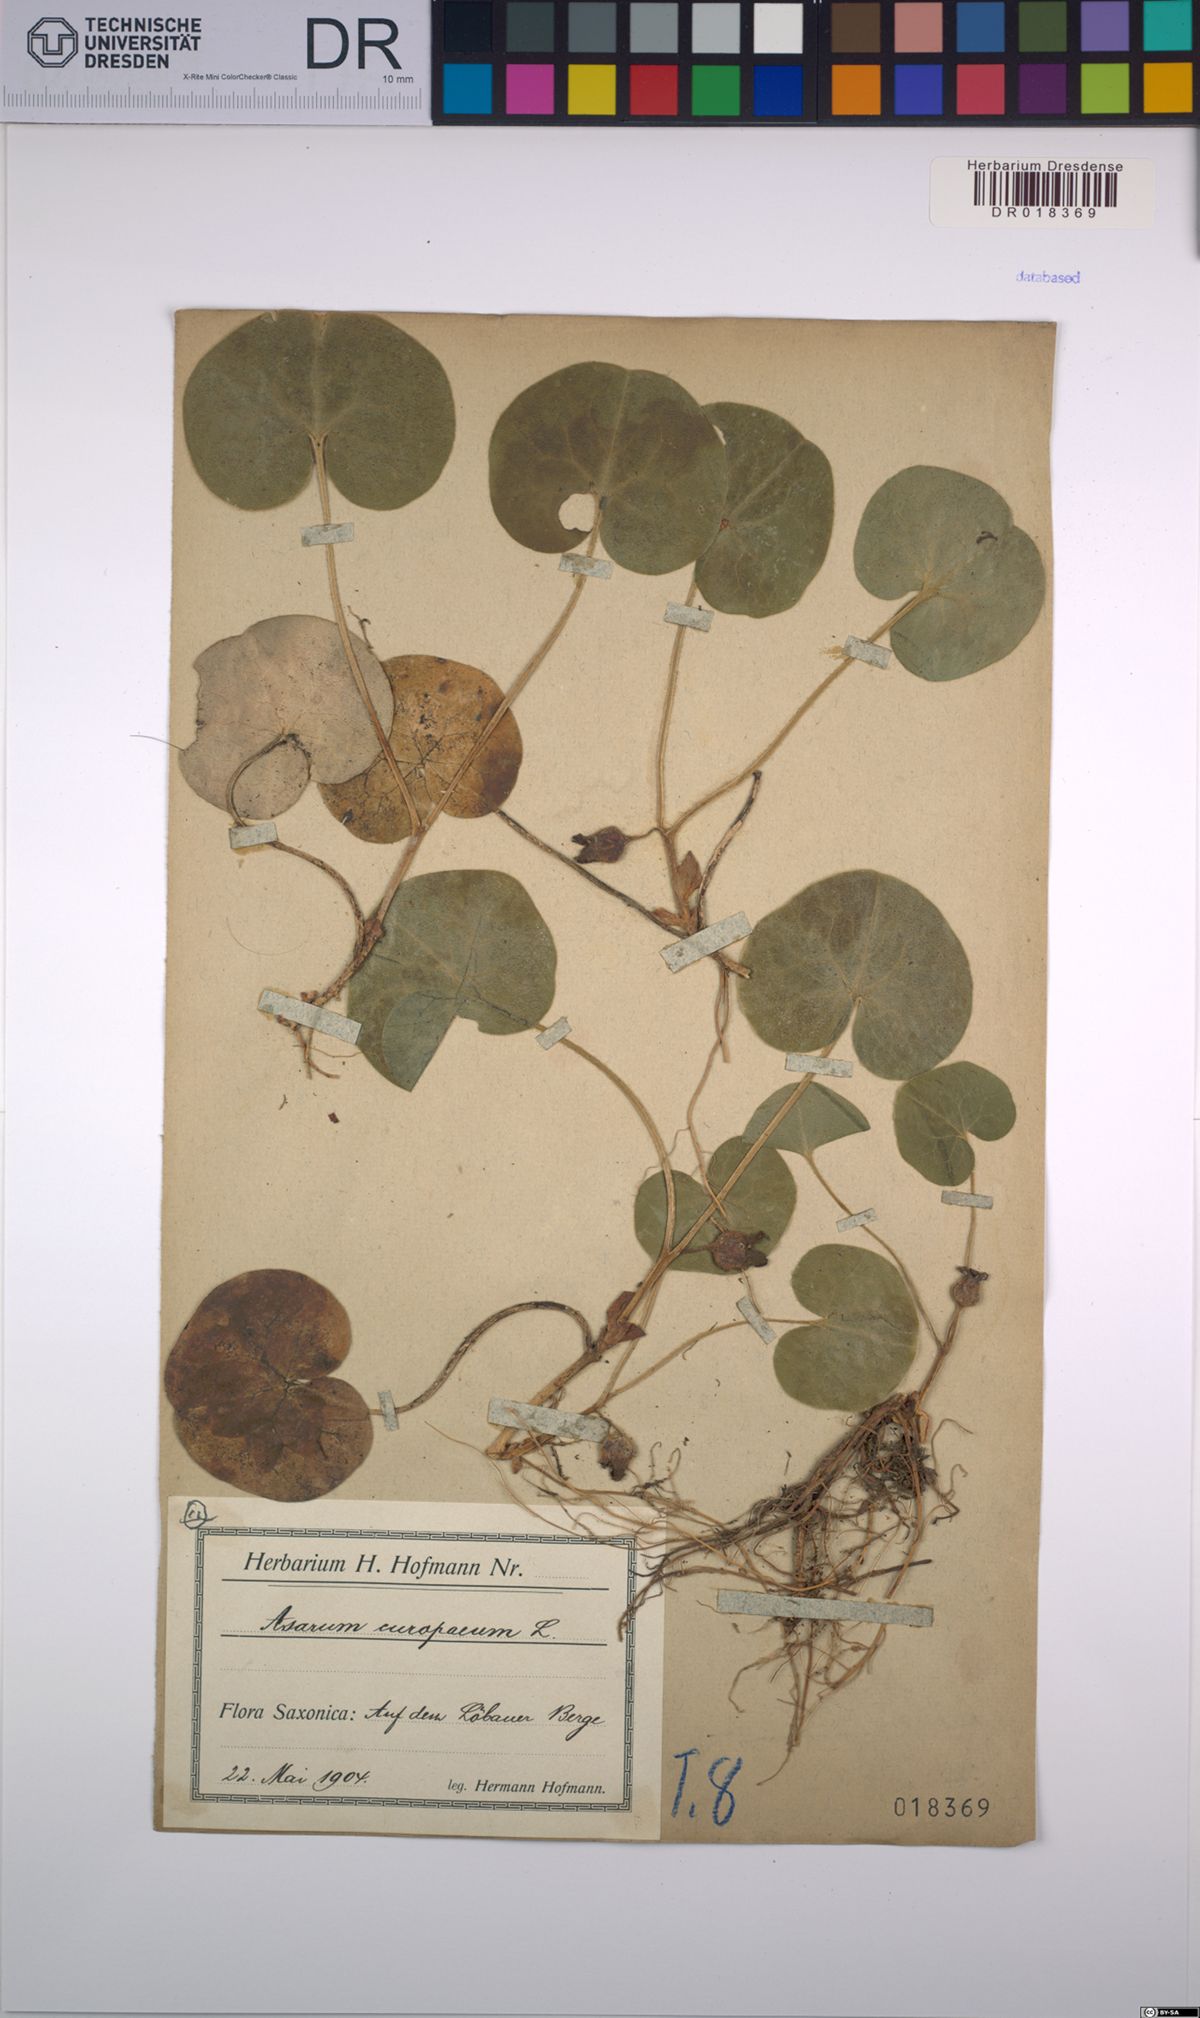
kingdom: Plantae
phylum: Tracheophyta
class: Magnoliopsida
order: Piperales
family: Aristolochiaceae
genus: Asarum
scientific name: Asarum europaeum
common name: Asarabacca
